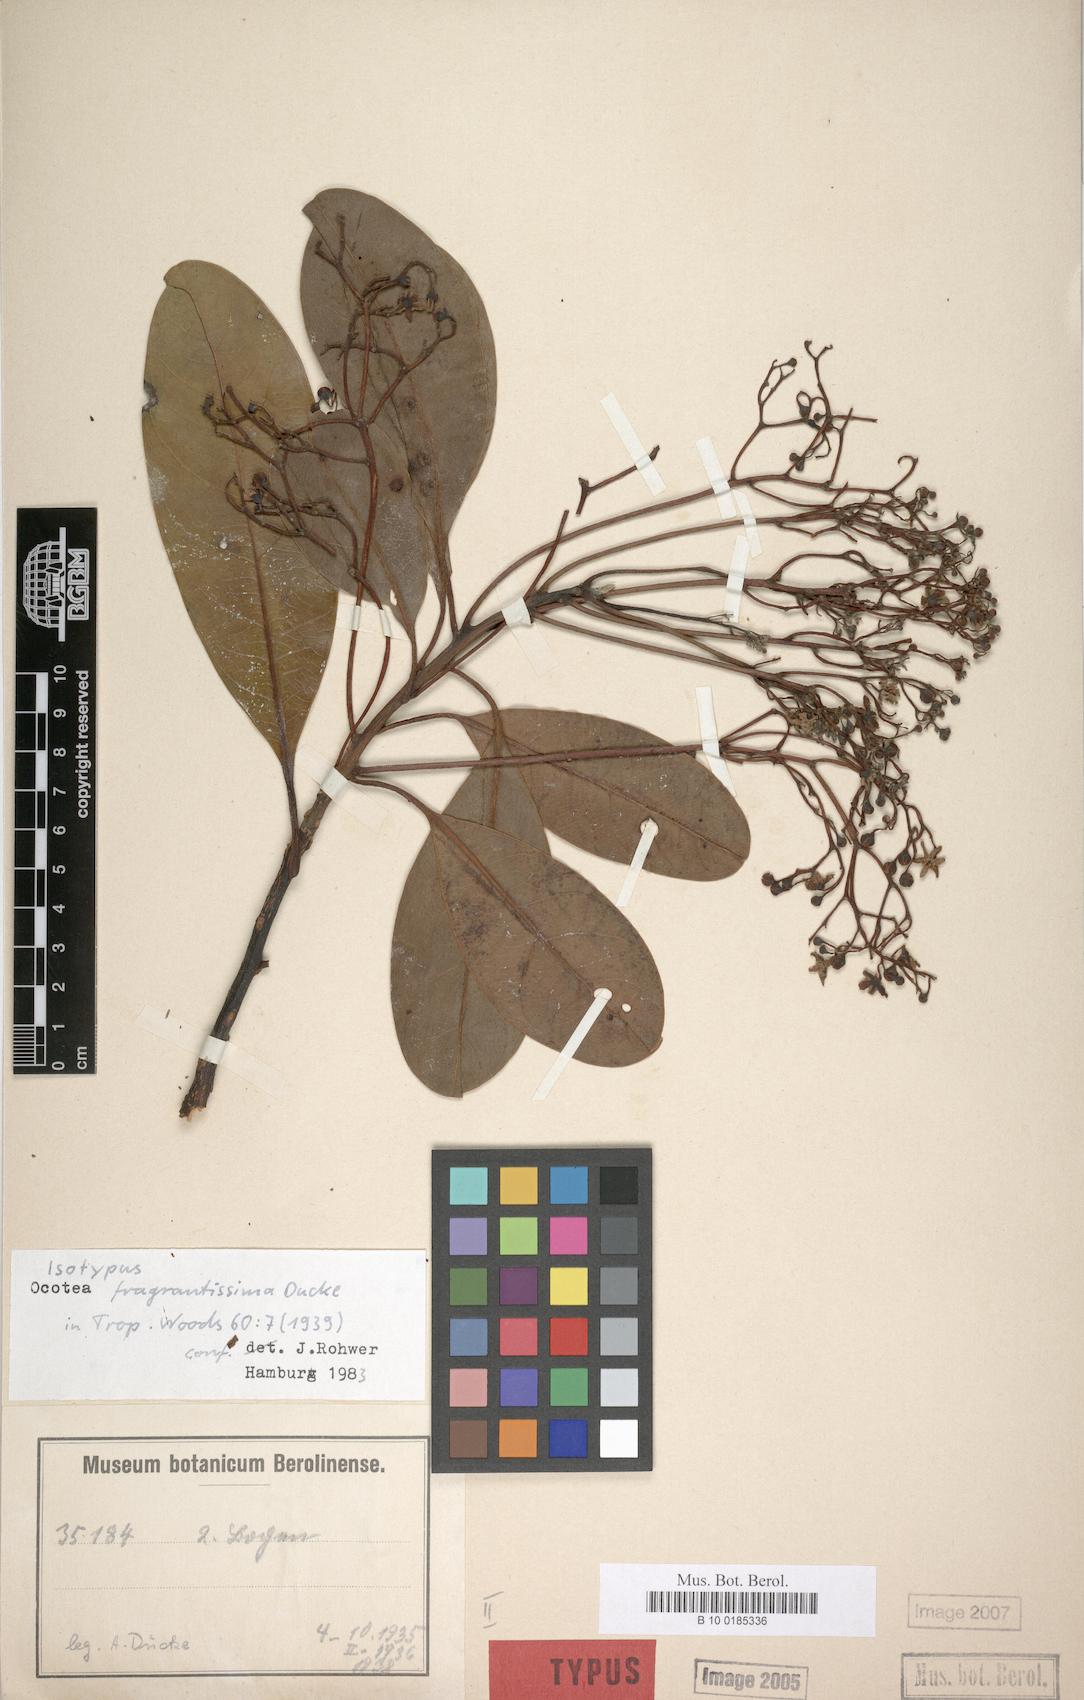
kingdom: Plantae
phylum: Tracheophyta
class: Magnoliopsida
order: Laurales
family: Lauraceae
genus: Mespilodaphne
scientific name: Mespilodaphne fragrantissima
